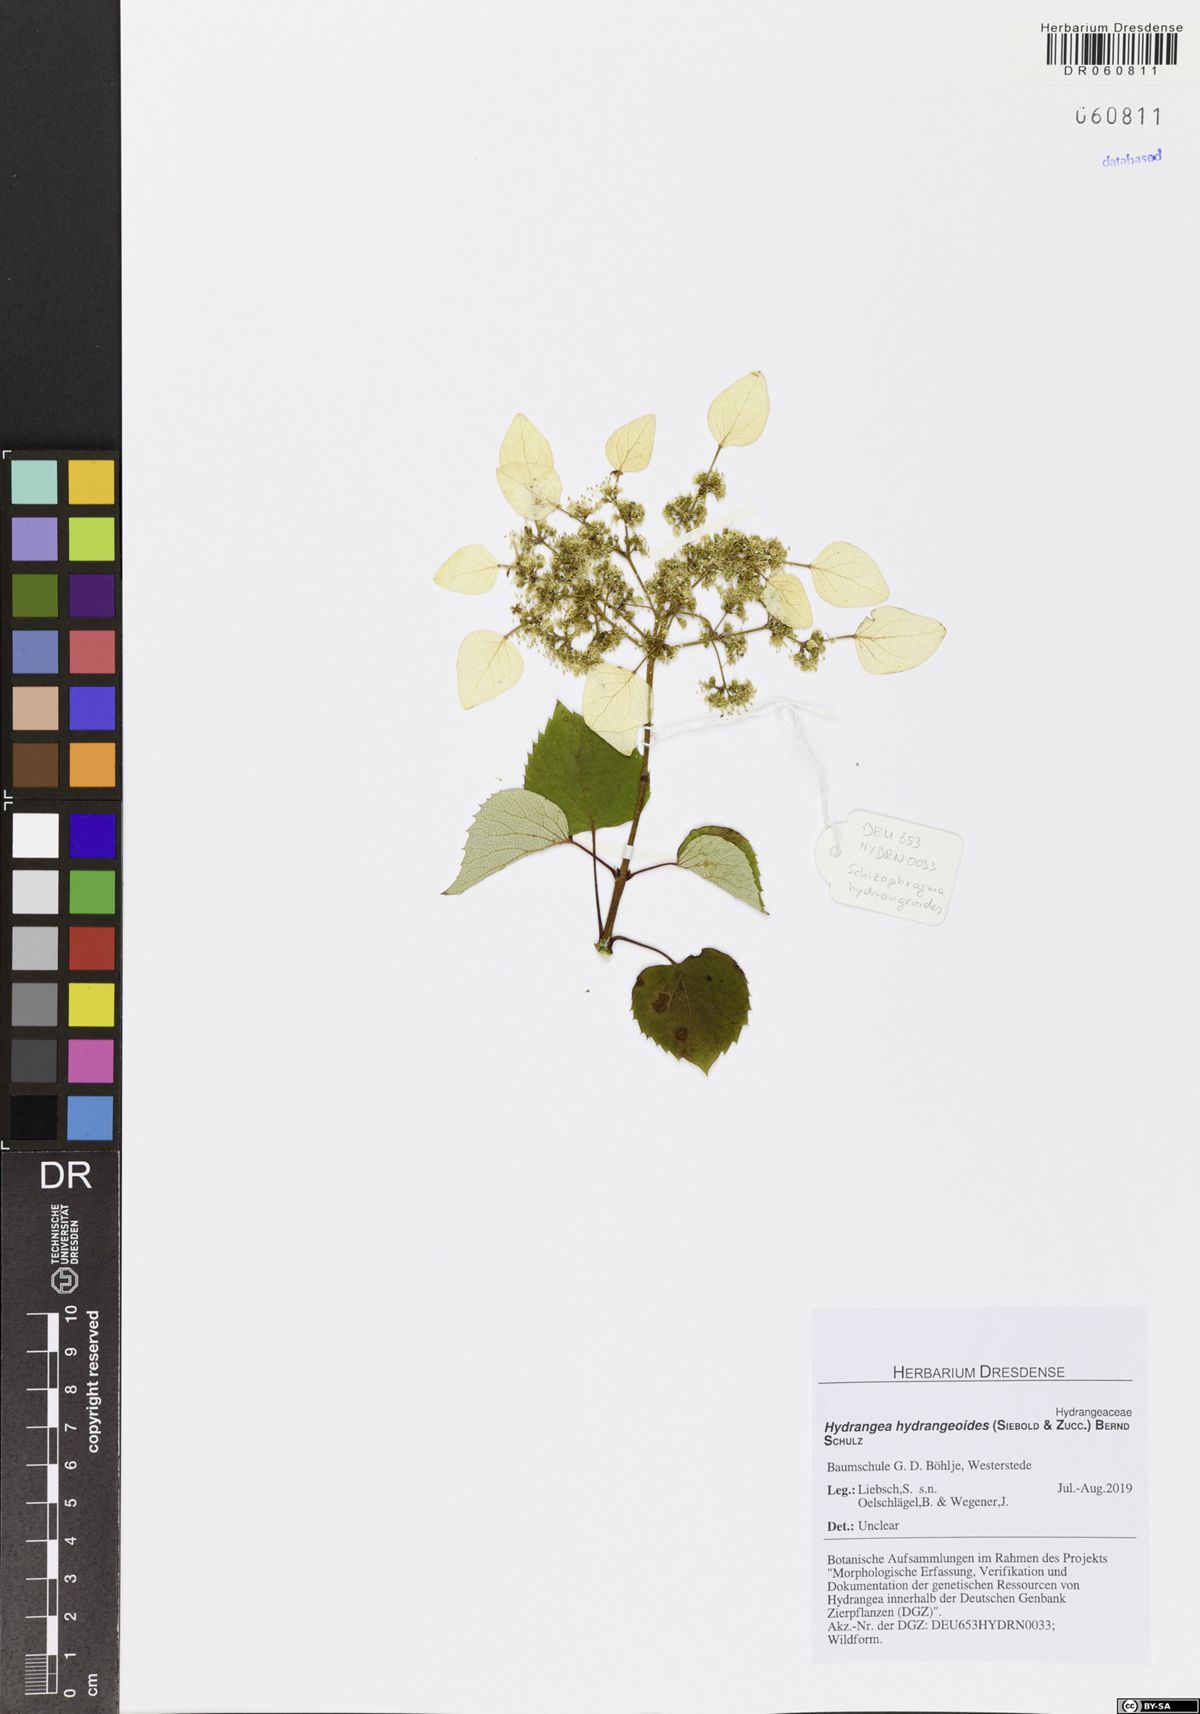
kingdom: Plantae
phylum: Tracheophyta
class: Magnoliopsida
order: Cornales
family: Hydrangeaceae
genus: Hydrangea
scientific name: Hydrangea hydrangeoides
